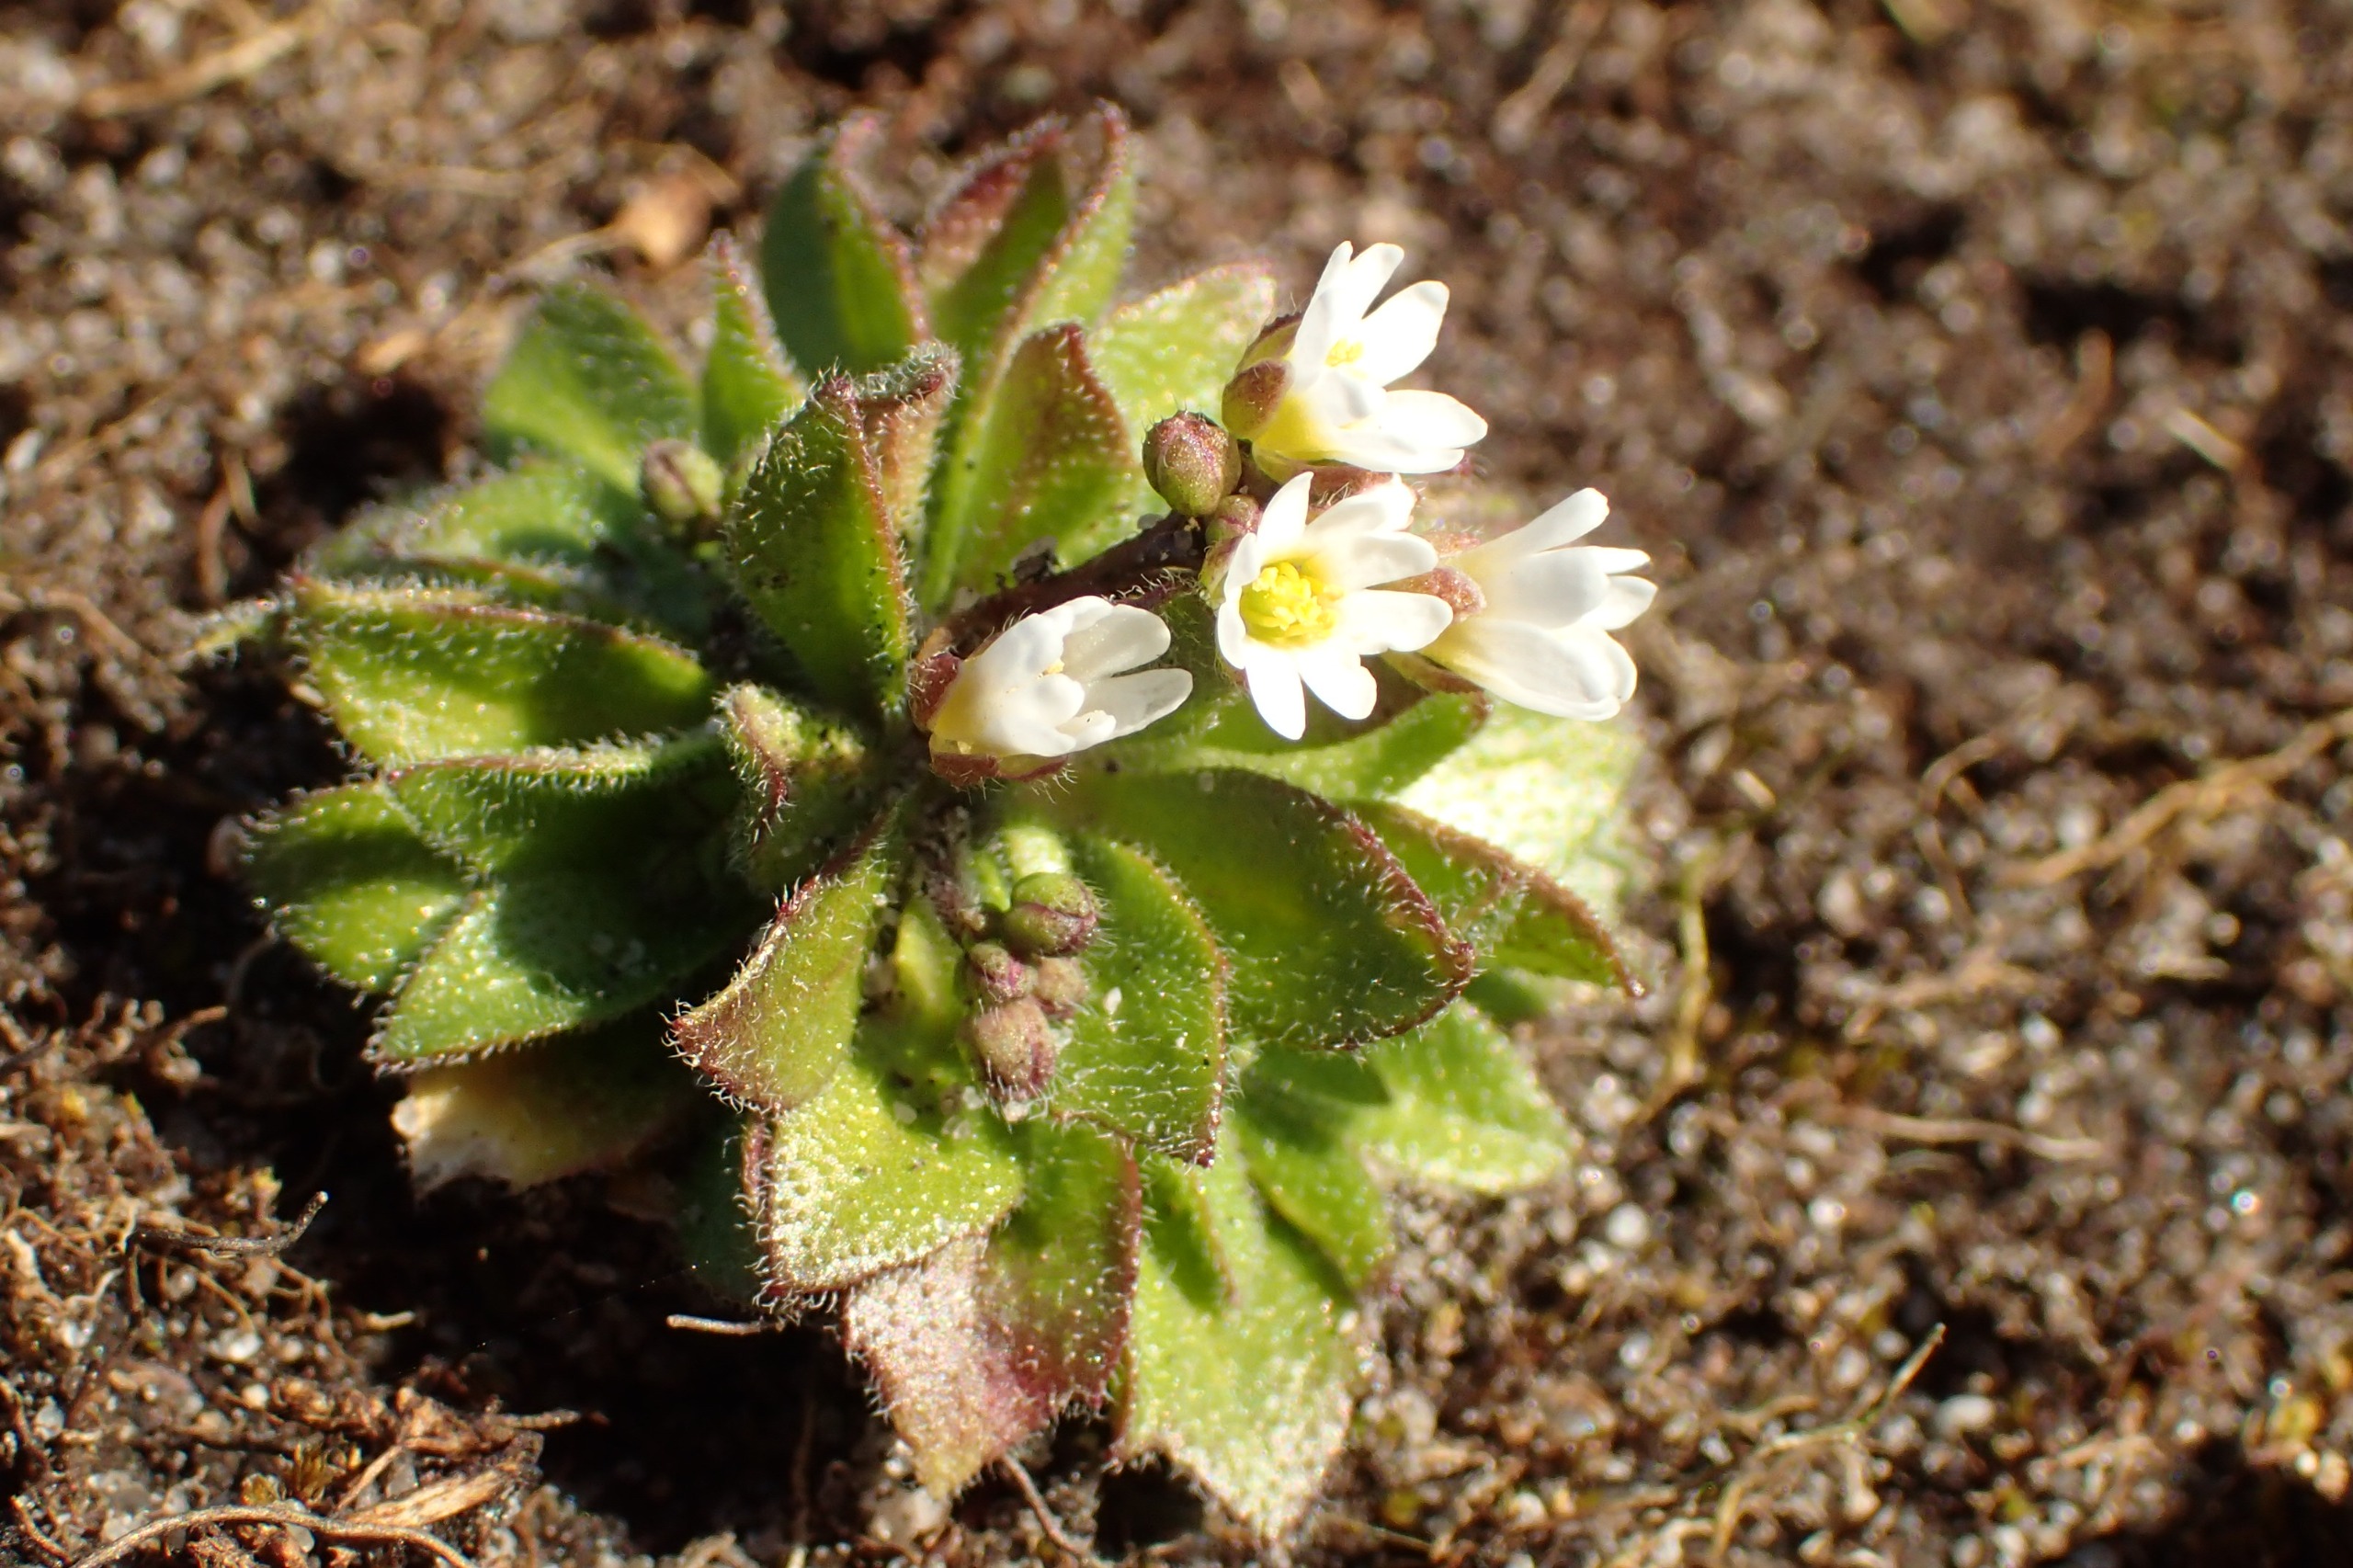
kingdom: Plantae
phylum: Tracheophyta
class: Magnoliopsida
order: Brassicales
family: Brassicaceae
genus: Draba
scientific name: Draba verna
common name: Vår-gæslingeblomst
